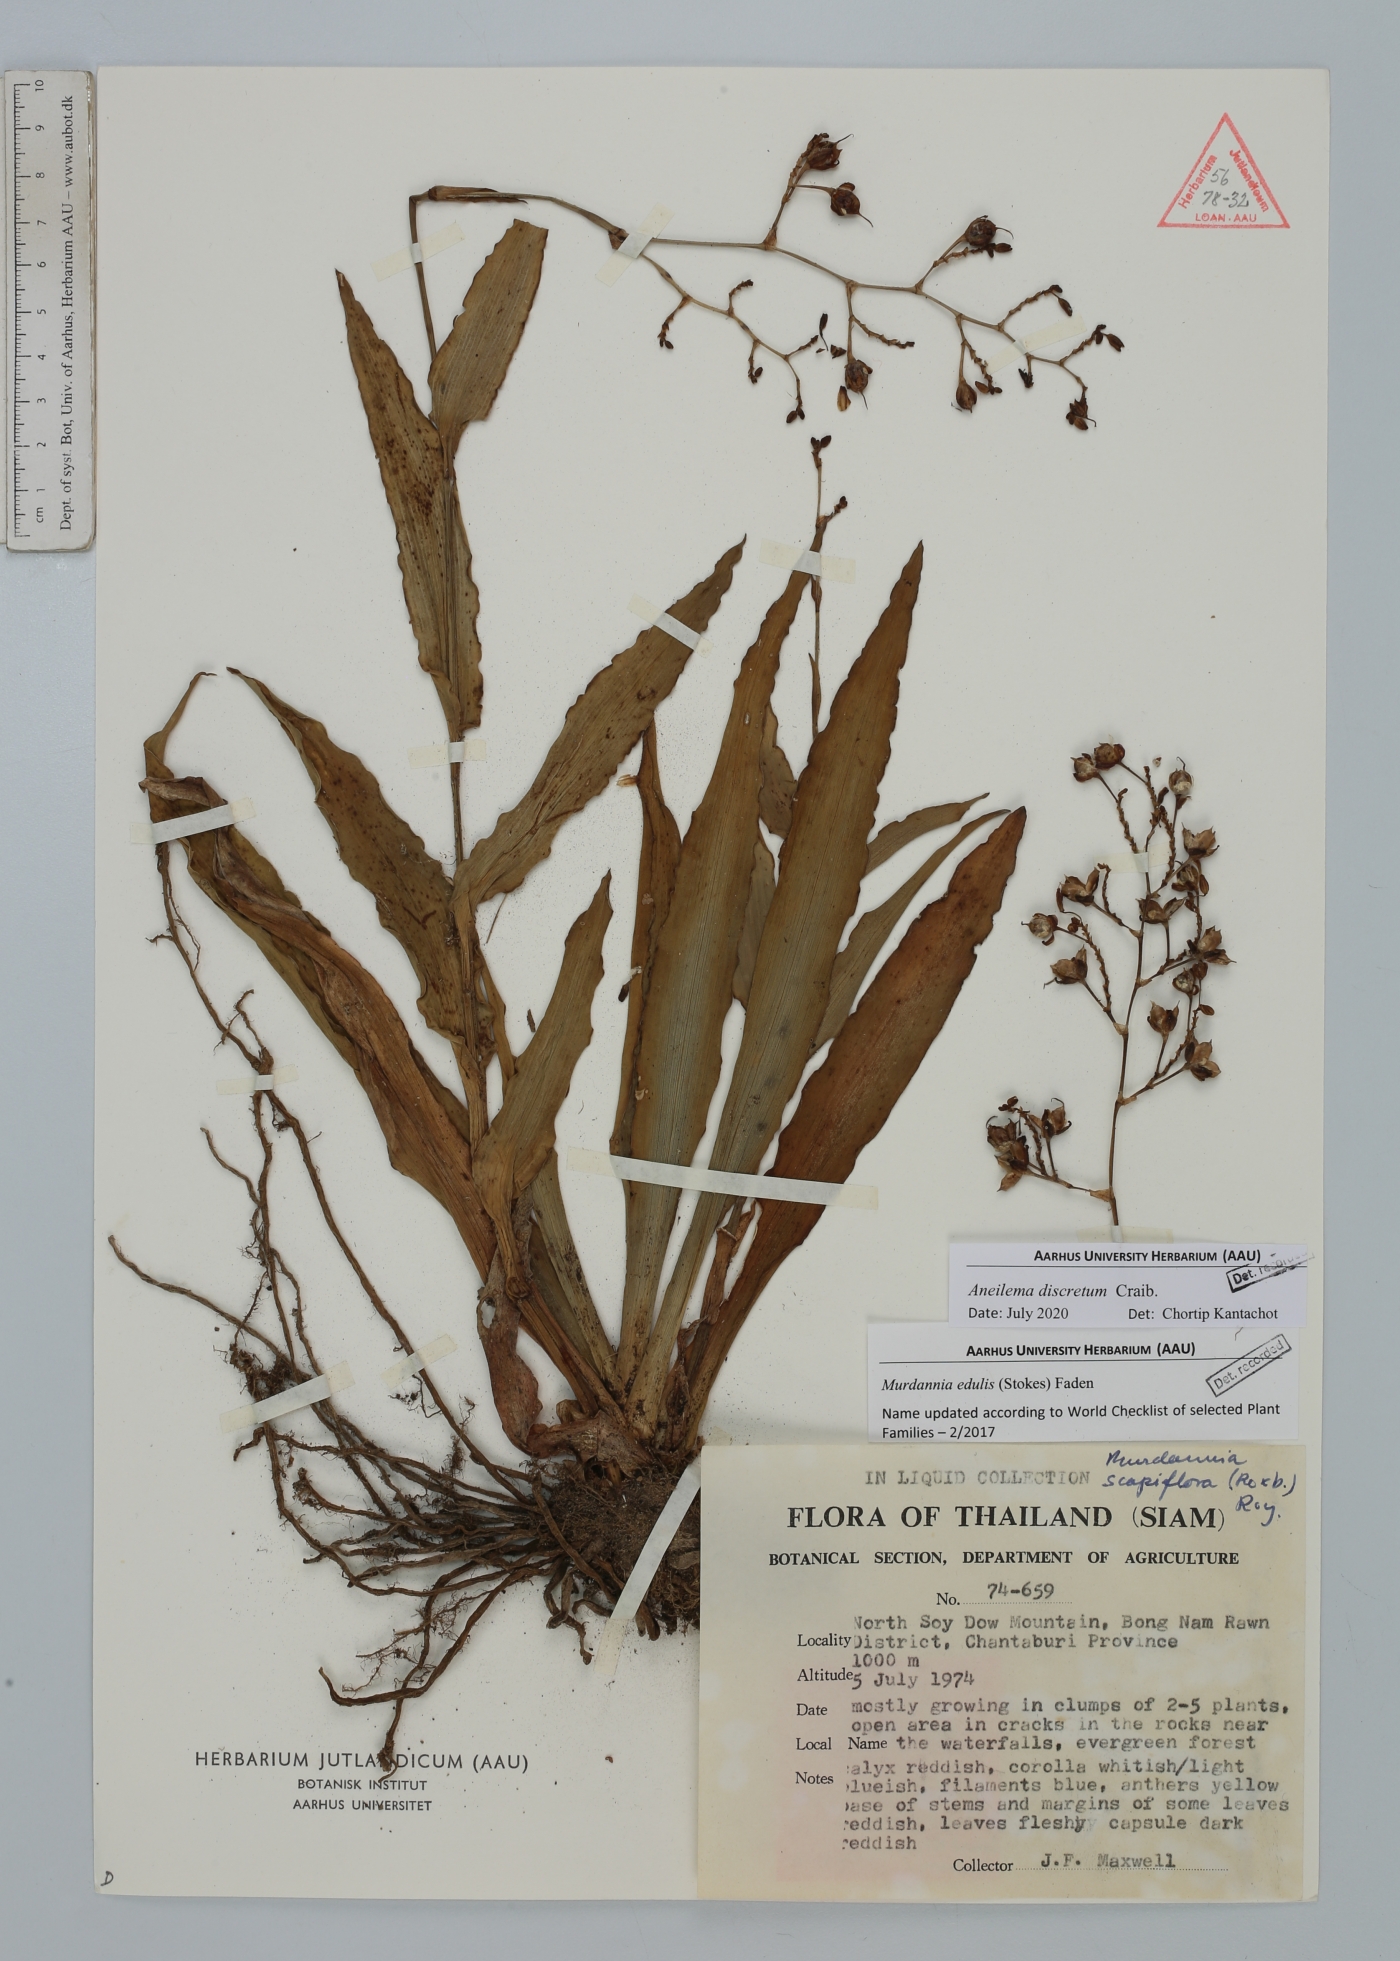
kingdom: Plantae
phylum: Tracheophyta
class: Liliopsida
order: Commelinales
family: Commelinaceae
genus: Aneilema
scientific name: Aneilema discretum
